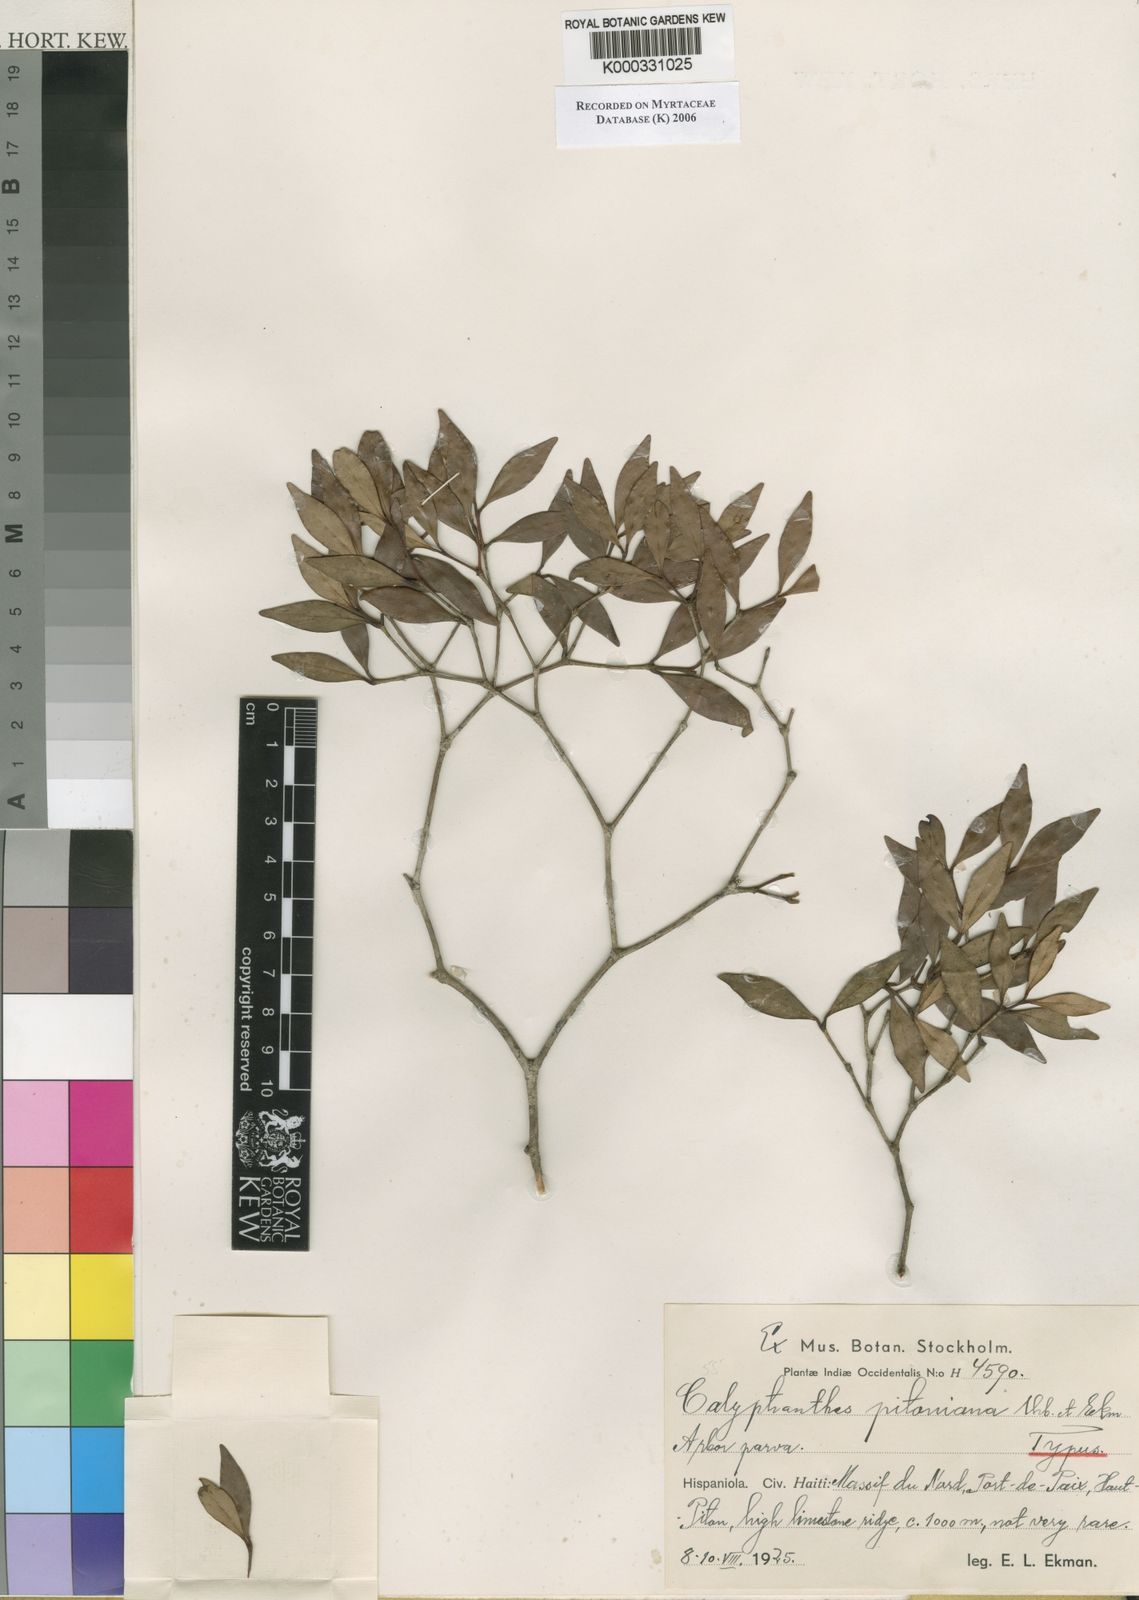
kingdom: Plantae
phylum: Tracheophyta
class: Magnoliopsida
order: Myrtales
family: Myrtaceae
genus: Myrcia
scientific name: Myrcia pitoniana
